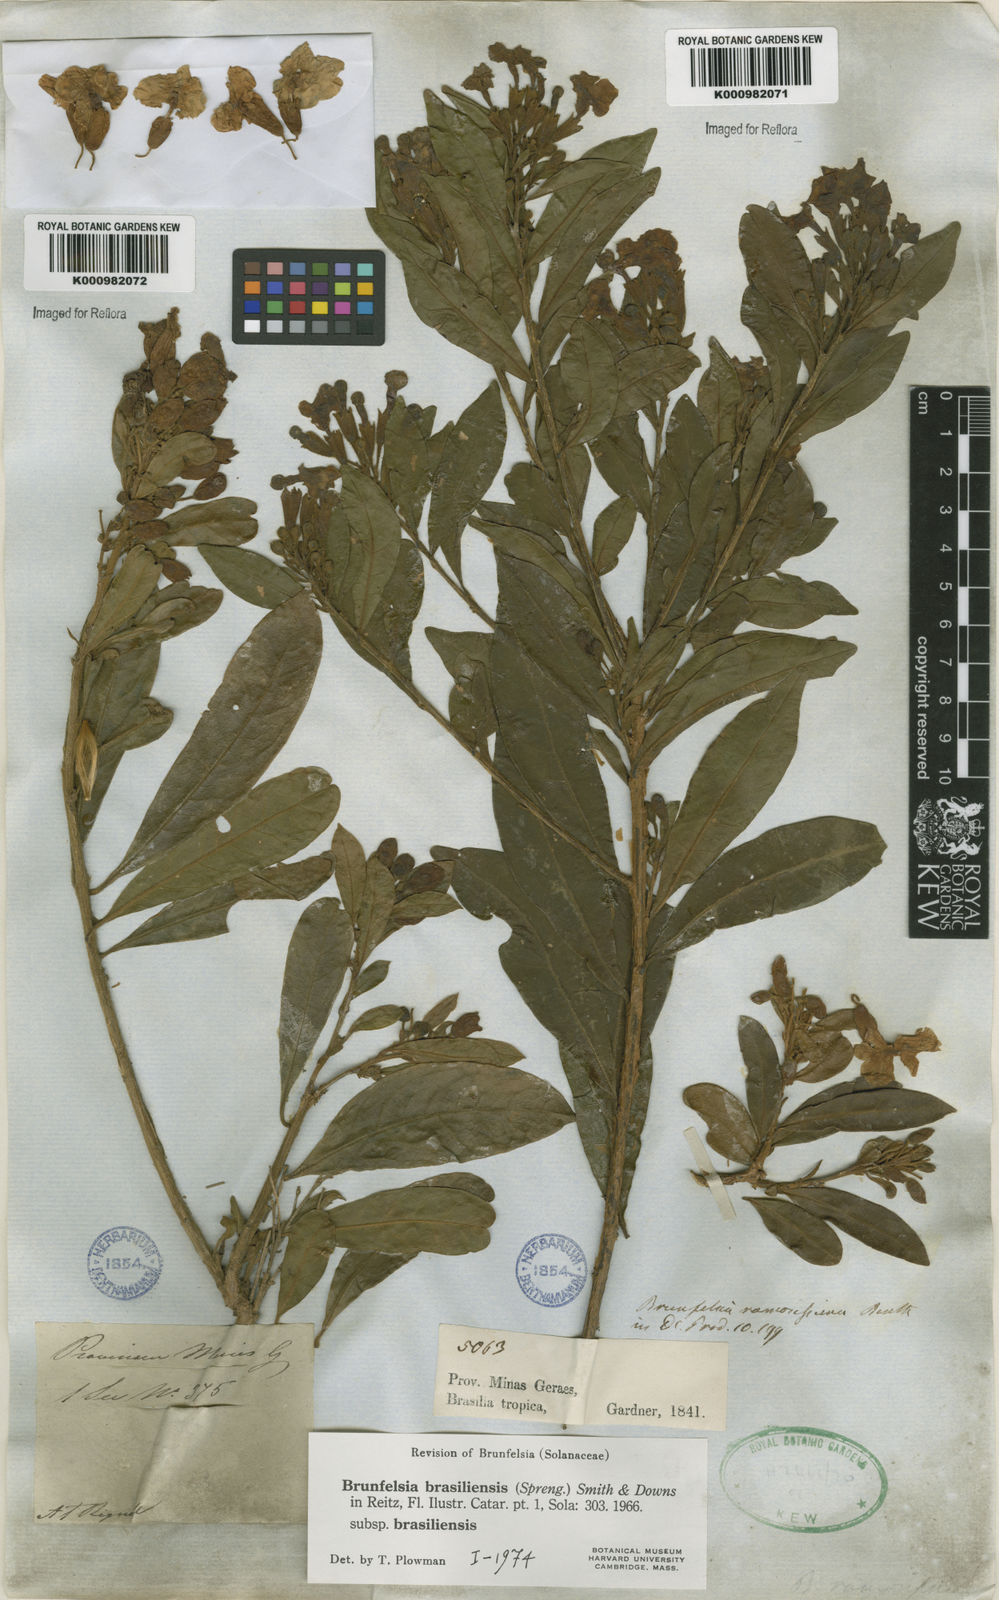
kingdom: Plantae
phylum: Tracheophyta
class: Magnoliopsida
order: Solanales
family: Solanaceae
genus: Brunfelsia
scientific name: Brunfelsia brasiliensis
